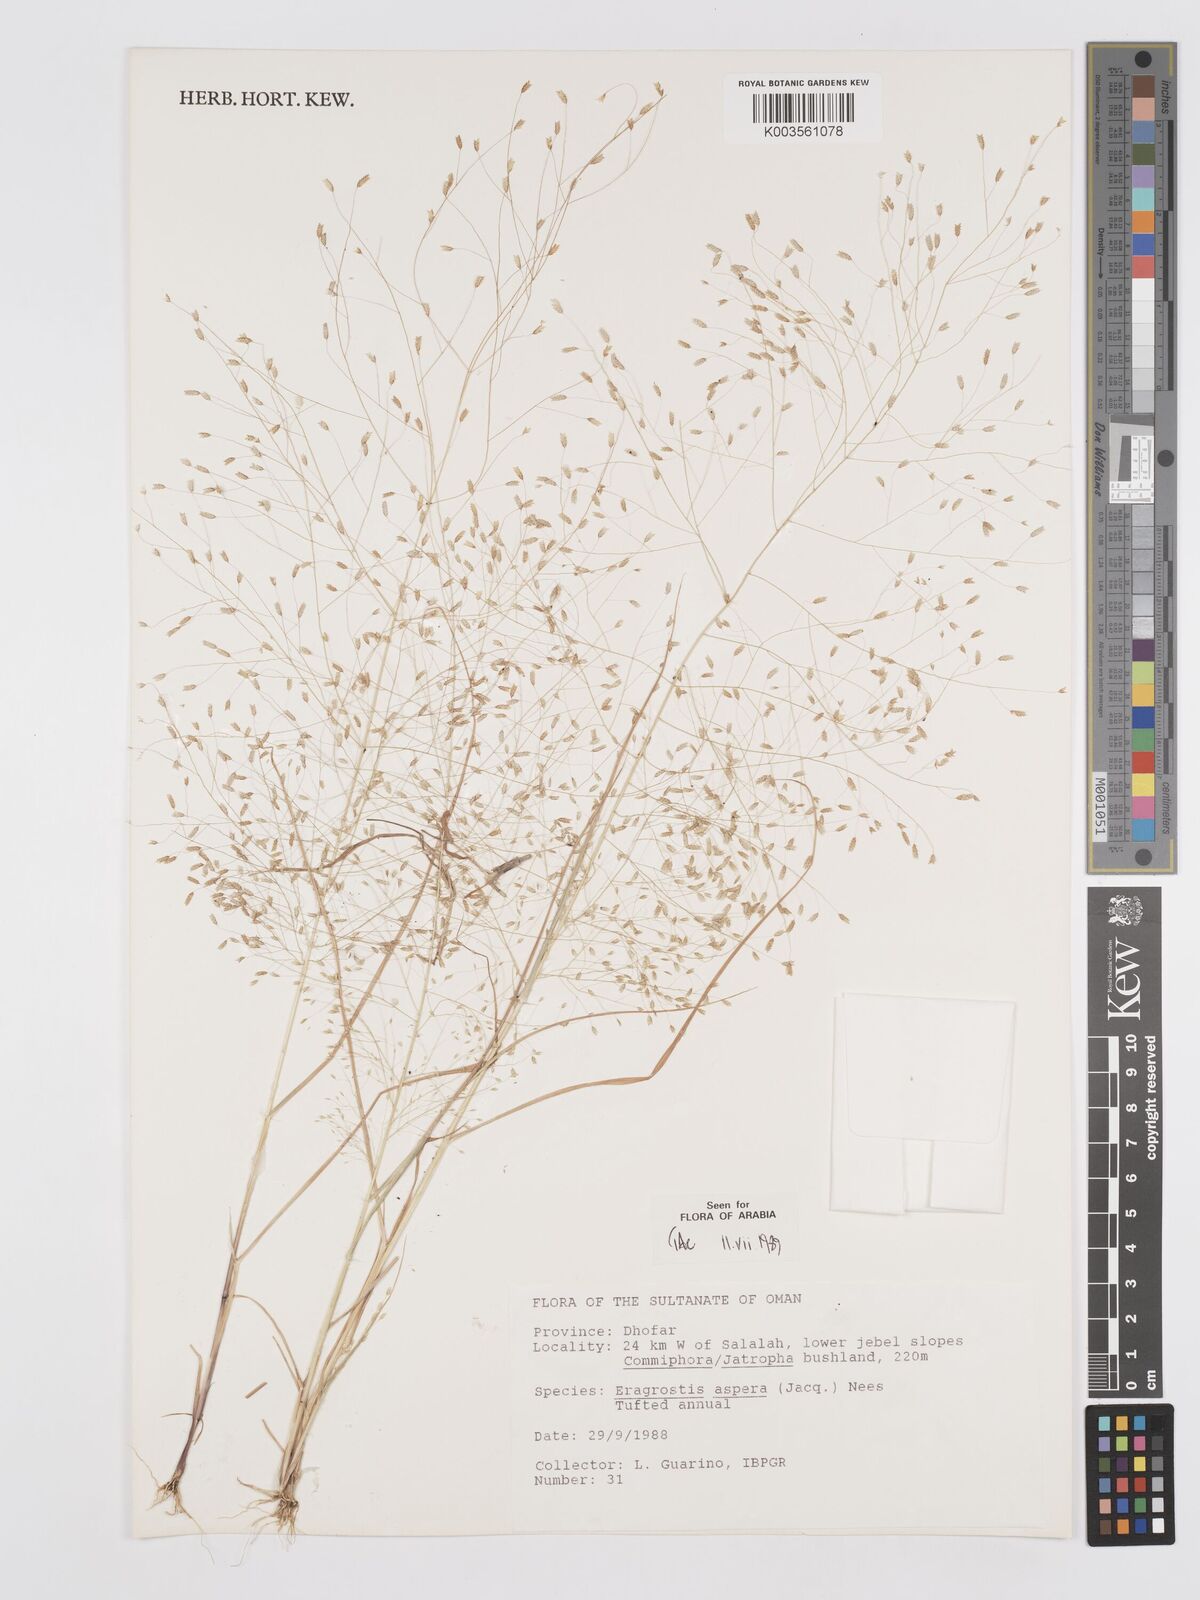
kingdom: Plantae
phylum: Tracheophyta
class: Liliopsida
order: Poales
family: Poaceae
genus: Eragrostis
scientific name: Eragrostis aspera
